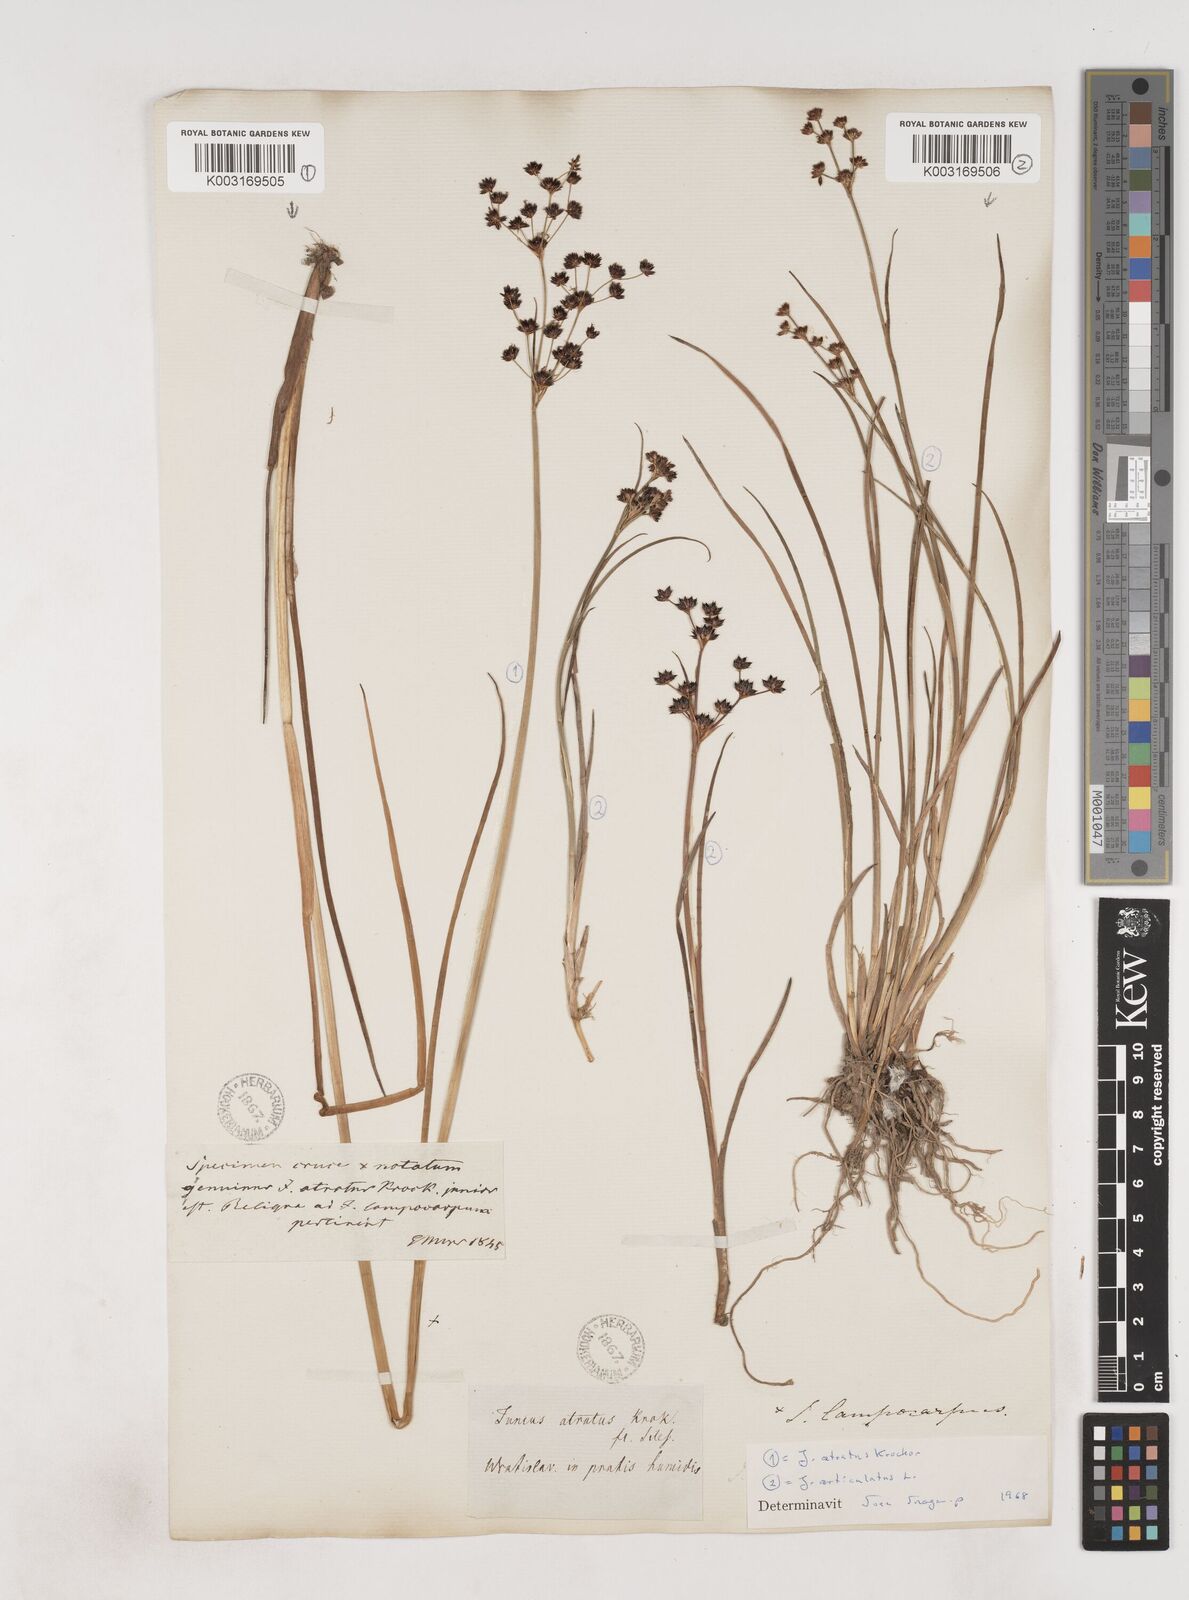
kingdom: Plantae
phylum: Tracheophyta
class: Liliopsida
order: Poales
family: Juncaceae
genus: Juncus
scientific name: Juncus atratus
